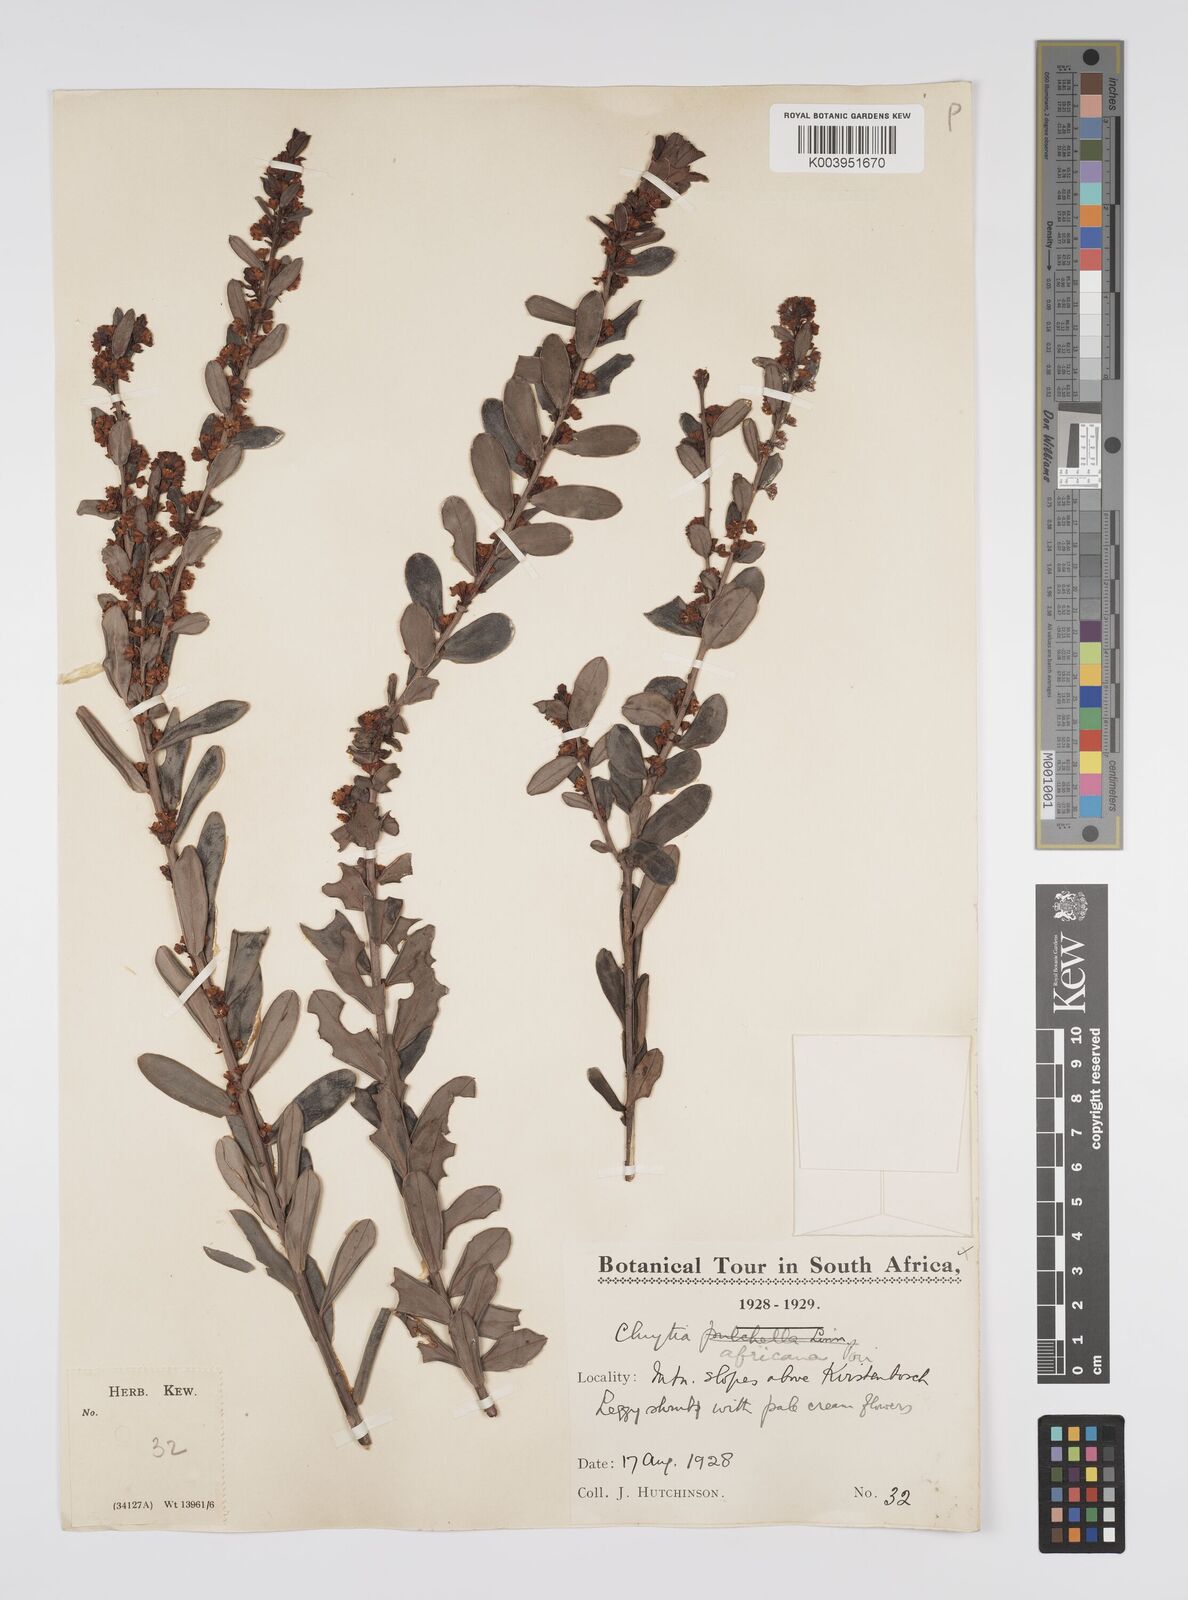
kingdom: Plantae
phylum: Tracheophyta
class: Magnoliopsida
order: Malpighiales
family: Peraceae
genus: Clutia
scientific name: Clutia africana
